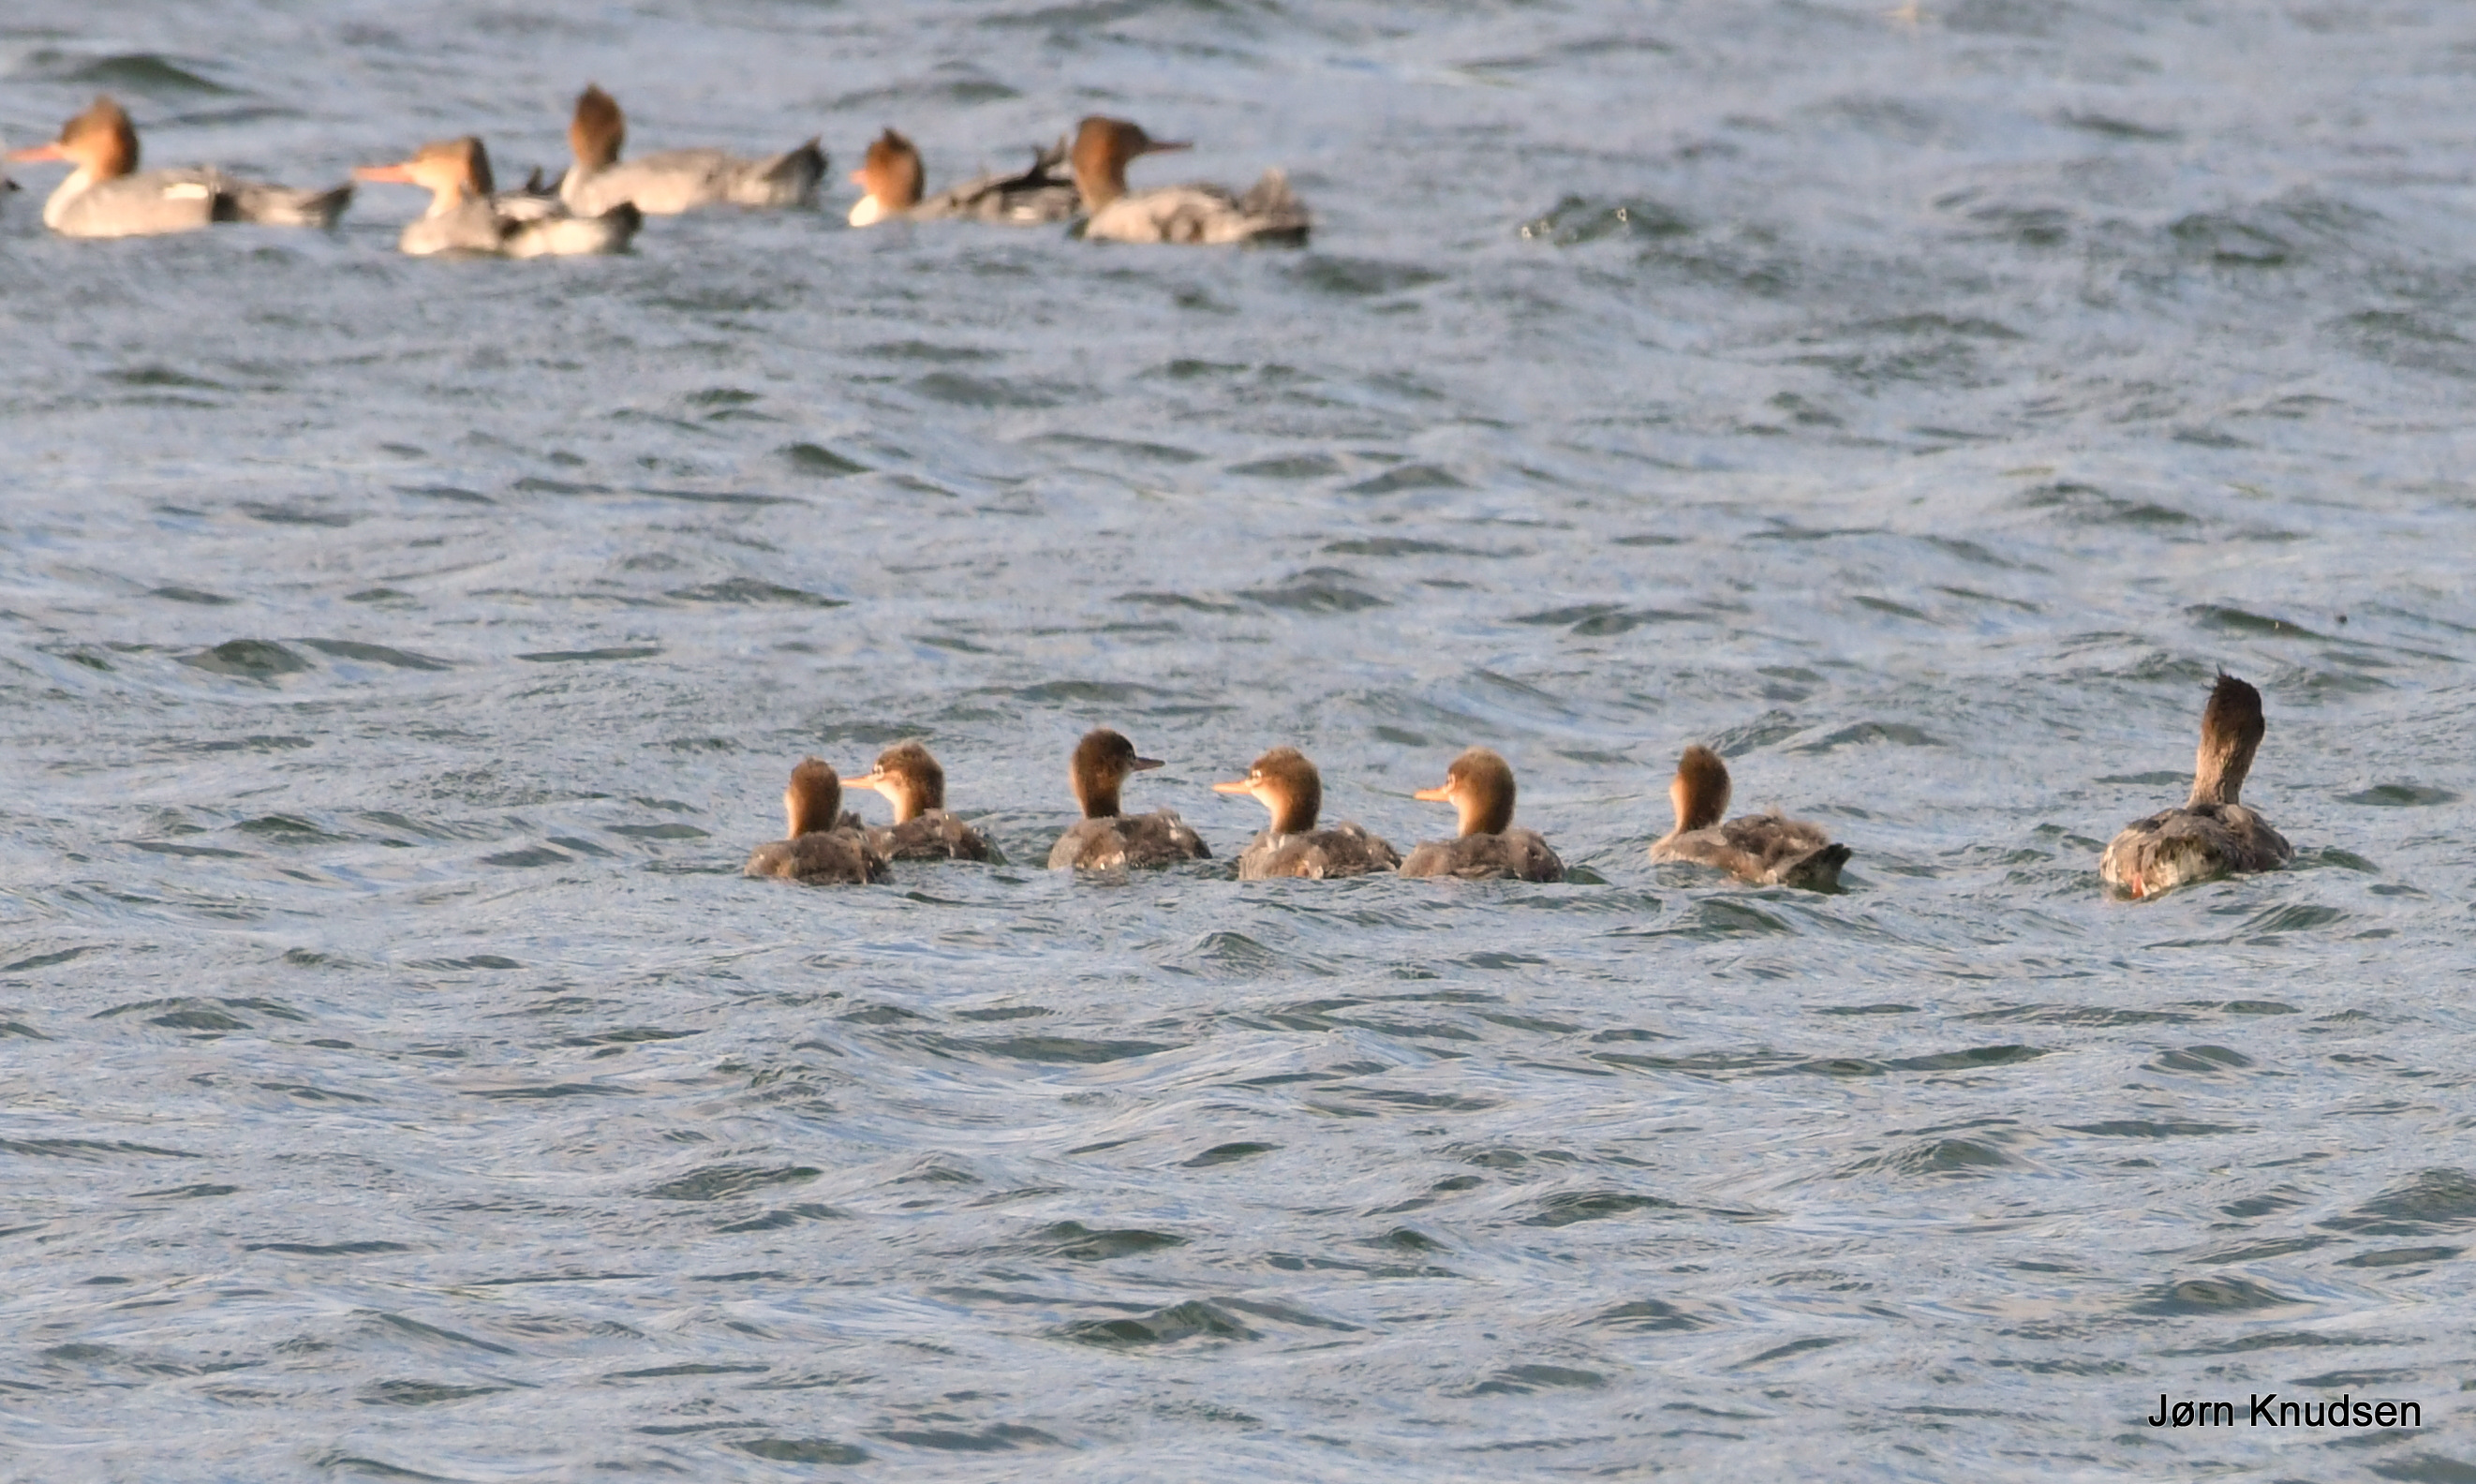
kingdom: Animalia
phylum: Chordata
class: Aves
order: Podicipediformes
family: Podicipedidae
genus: Podiceps
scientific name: Podiceps cristatus
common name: Toppet lappedykker
